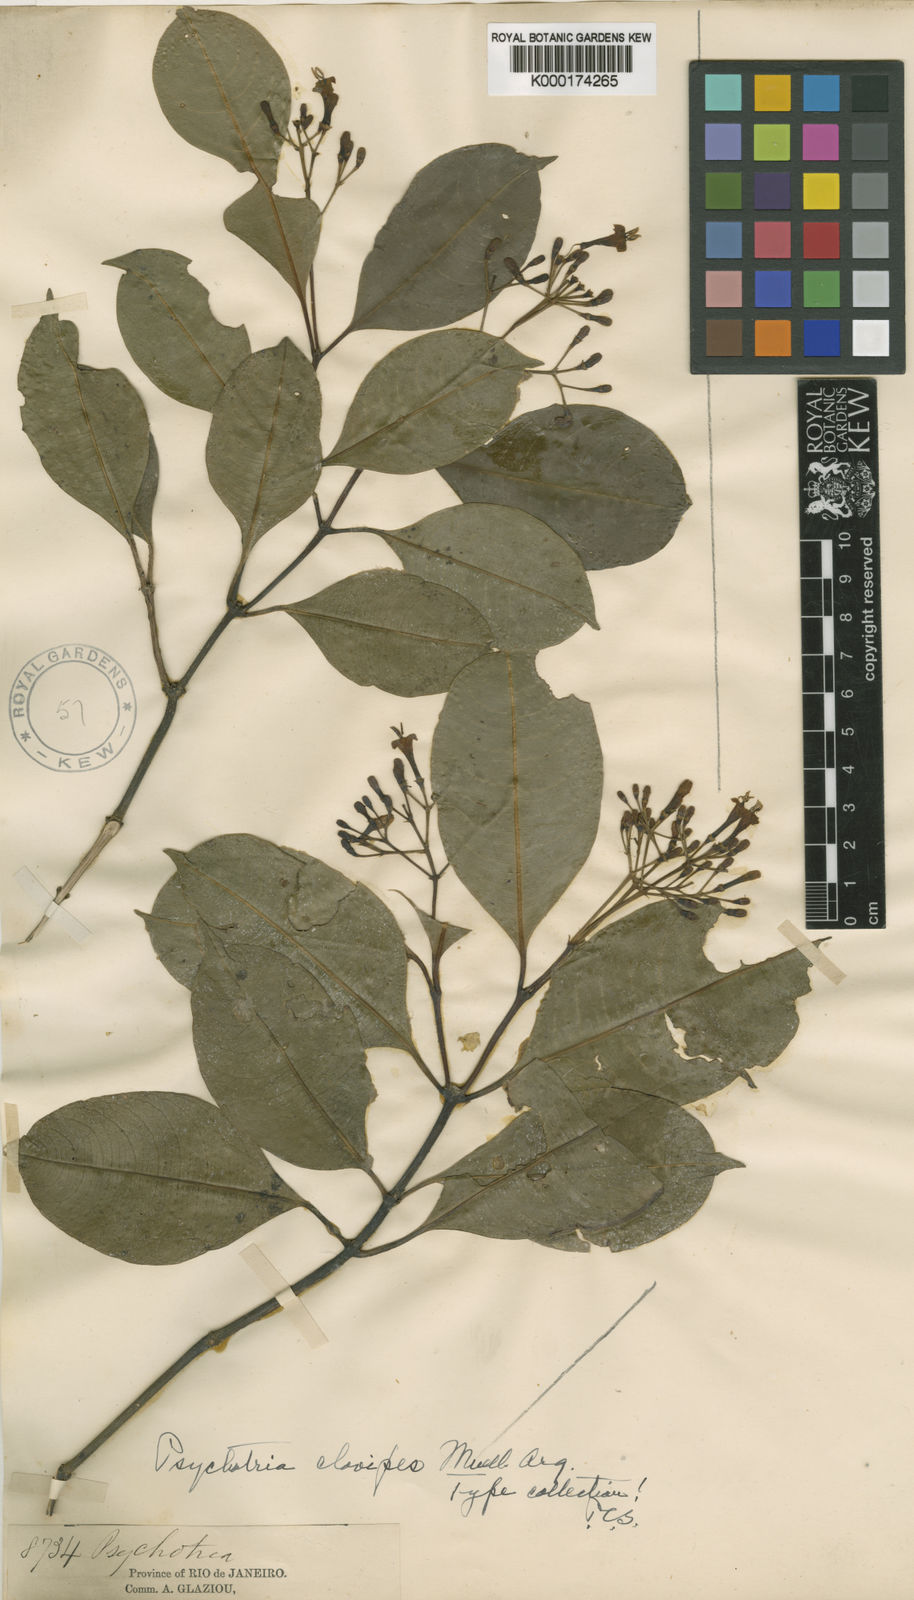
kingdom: Plantae
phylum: Tracheophyta
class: Magnoliopsida
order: Gentianales
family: Rubiaceae
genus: Psychotria
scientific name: Psychotria
